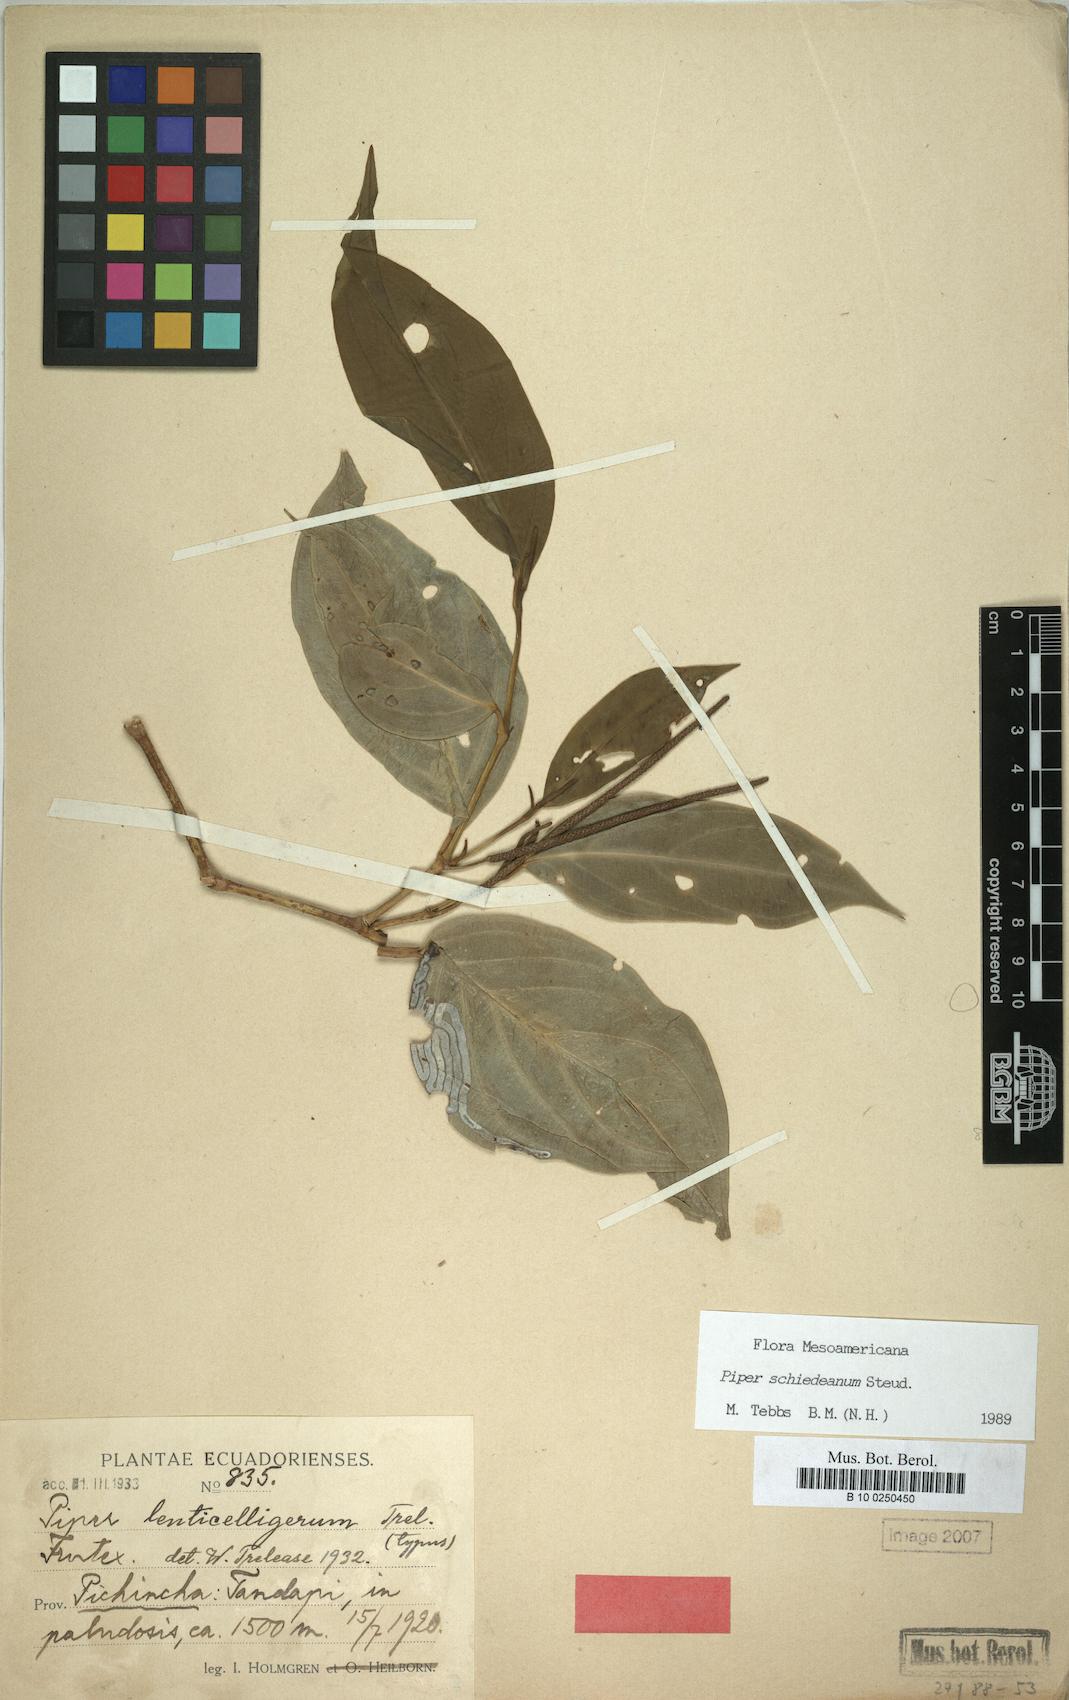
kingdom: Plantae
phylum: Tracheophyta
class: Magnoliopsida
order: Piperales
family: Piperaceae
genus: Piper
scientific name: Piper schiedeanum
